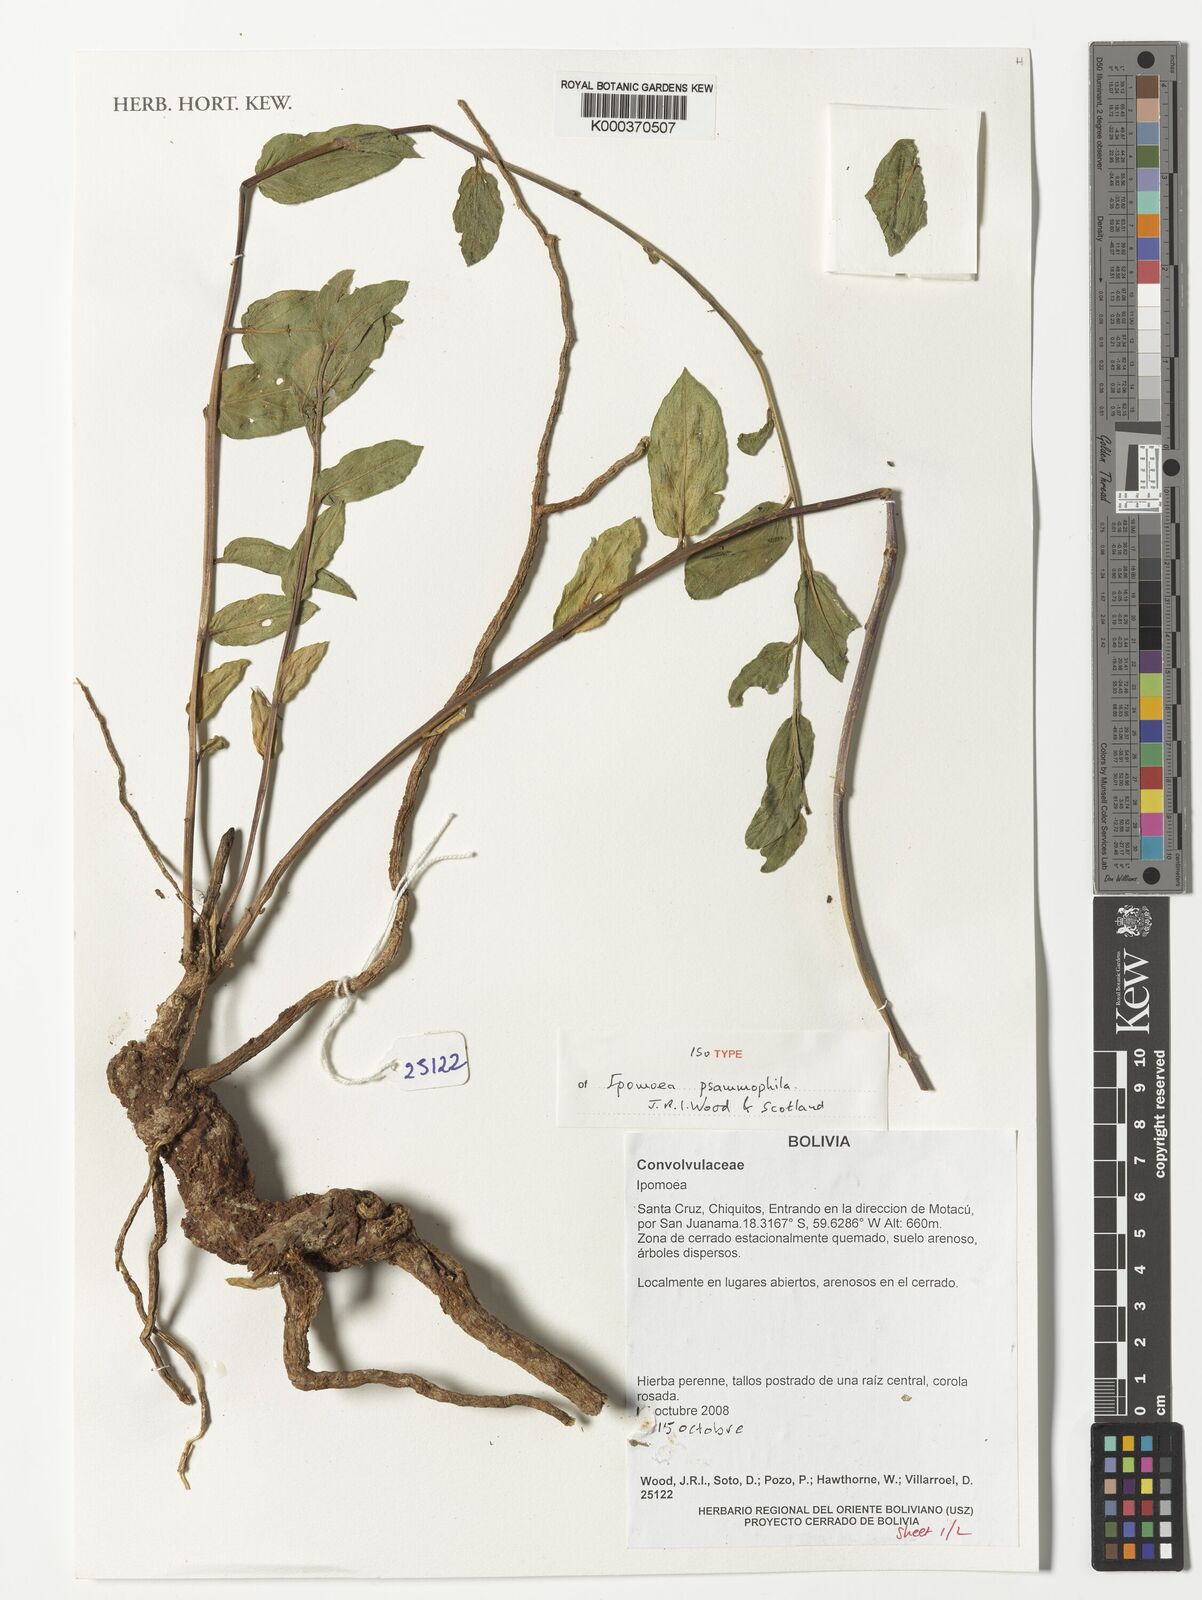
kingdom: Plantae
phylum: Tracheophyta
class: Magnoliopsida
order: Solanales
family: Convolvulaceae
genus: Ipomoea
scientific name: Ipomoea psammophila
